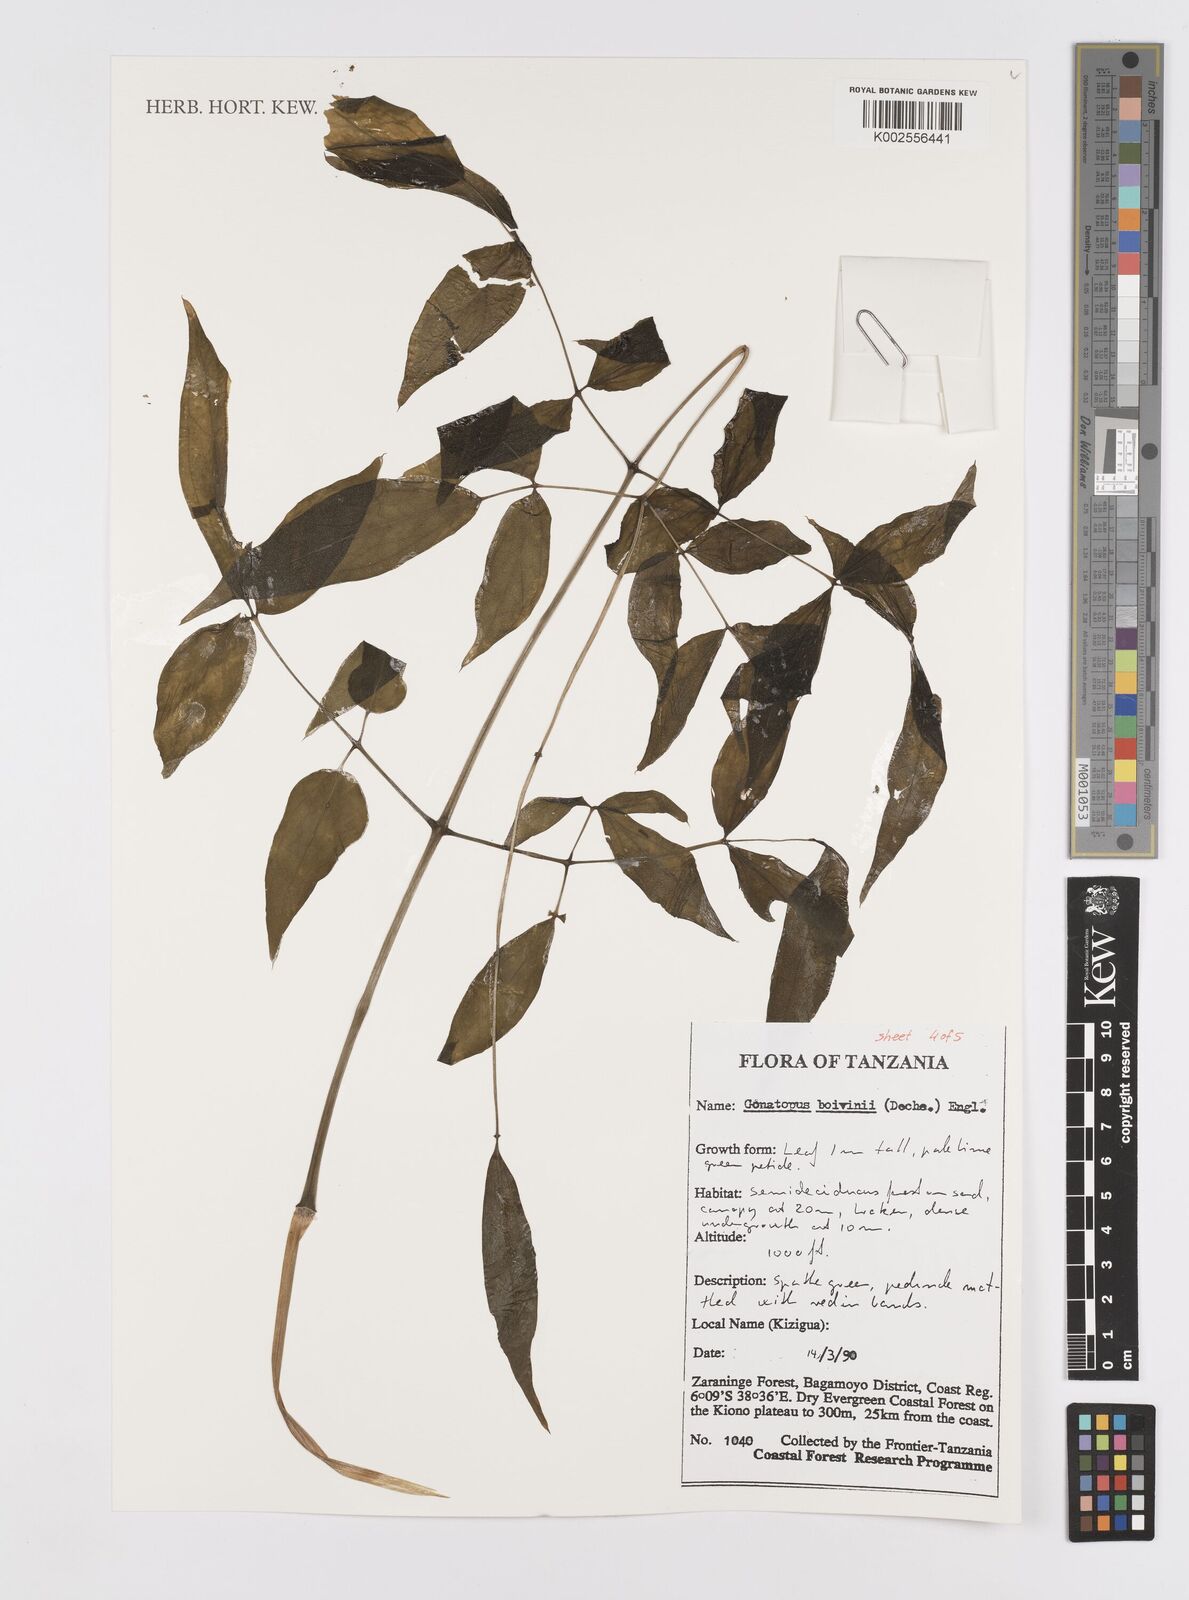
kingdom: Plantae
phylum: Tracheophyta
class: Liliopsida
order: Alismatales
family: Araceae
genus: Gonatopus
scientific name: Gonatopus boivinii
